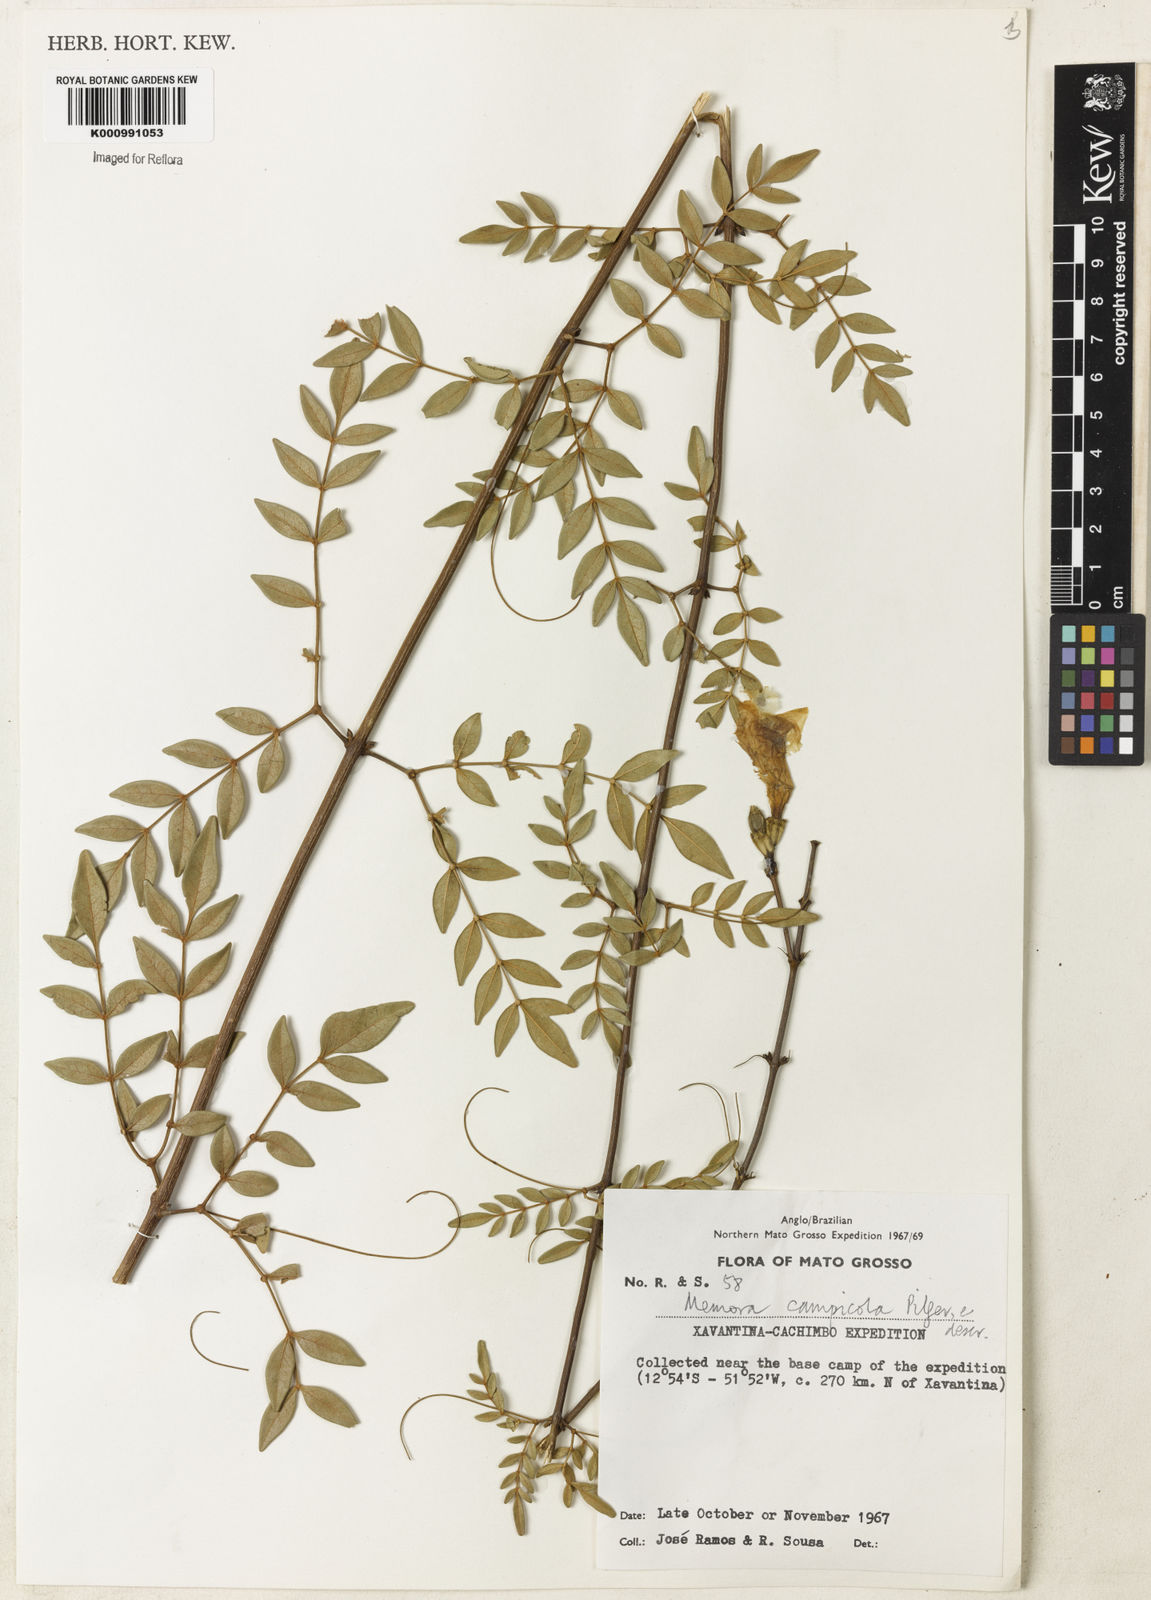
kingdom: Plantae
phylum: Tracheophyta
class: Magnoliopsida
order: Lamiales
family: Bignoniaceae
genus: Adenocalymma
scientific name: Adenocalymma campicola
